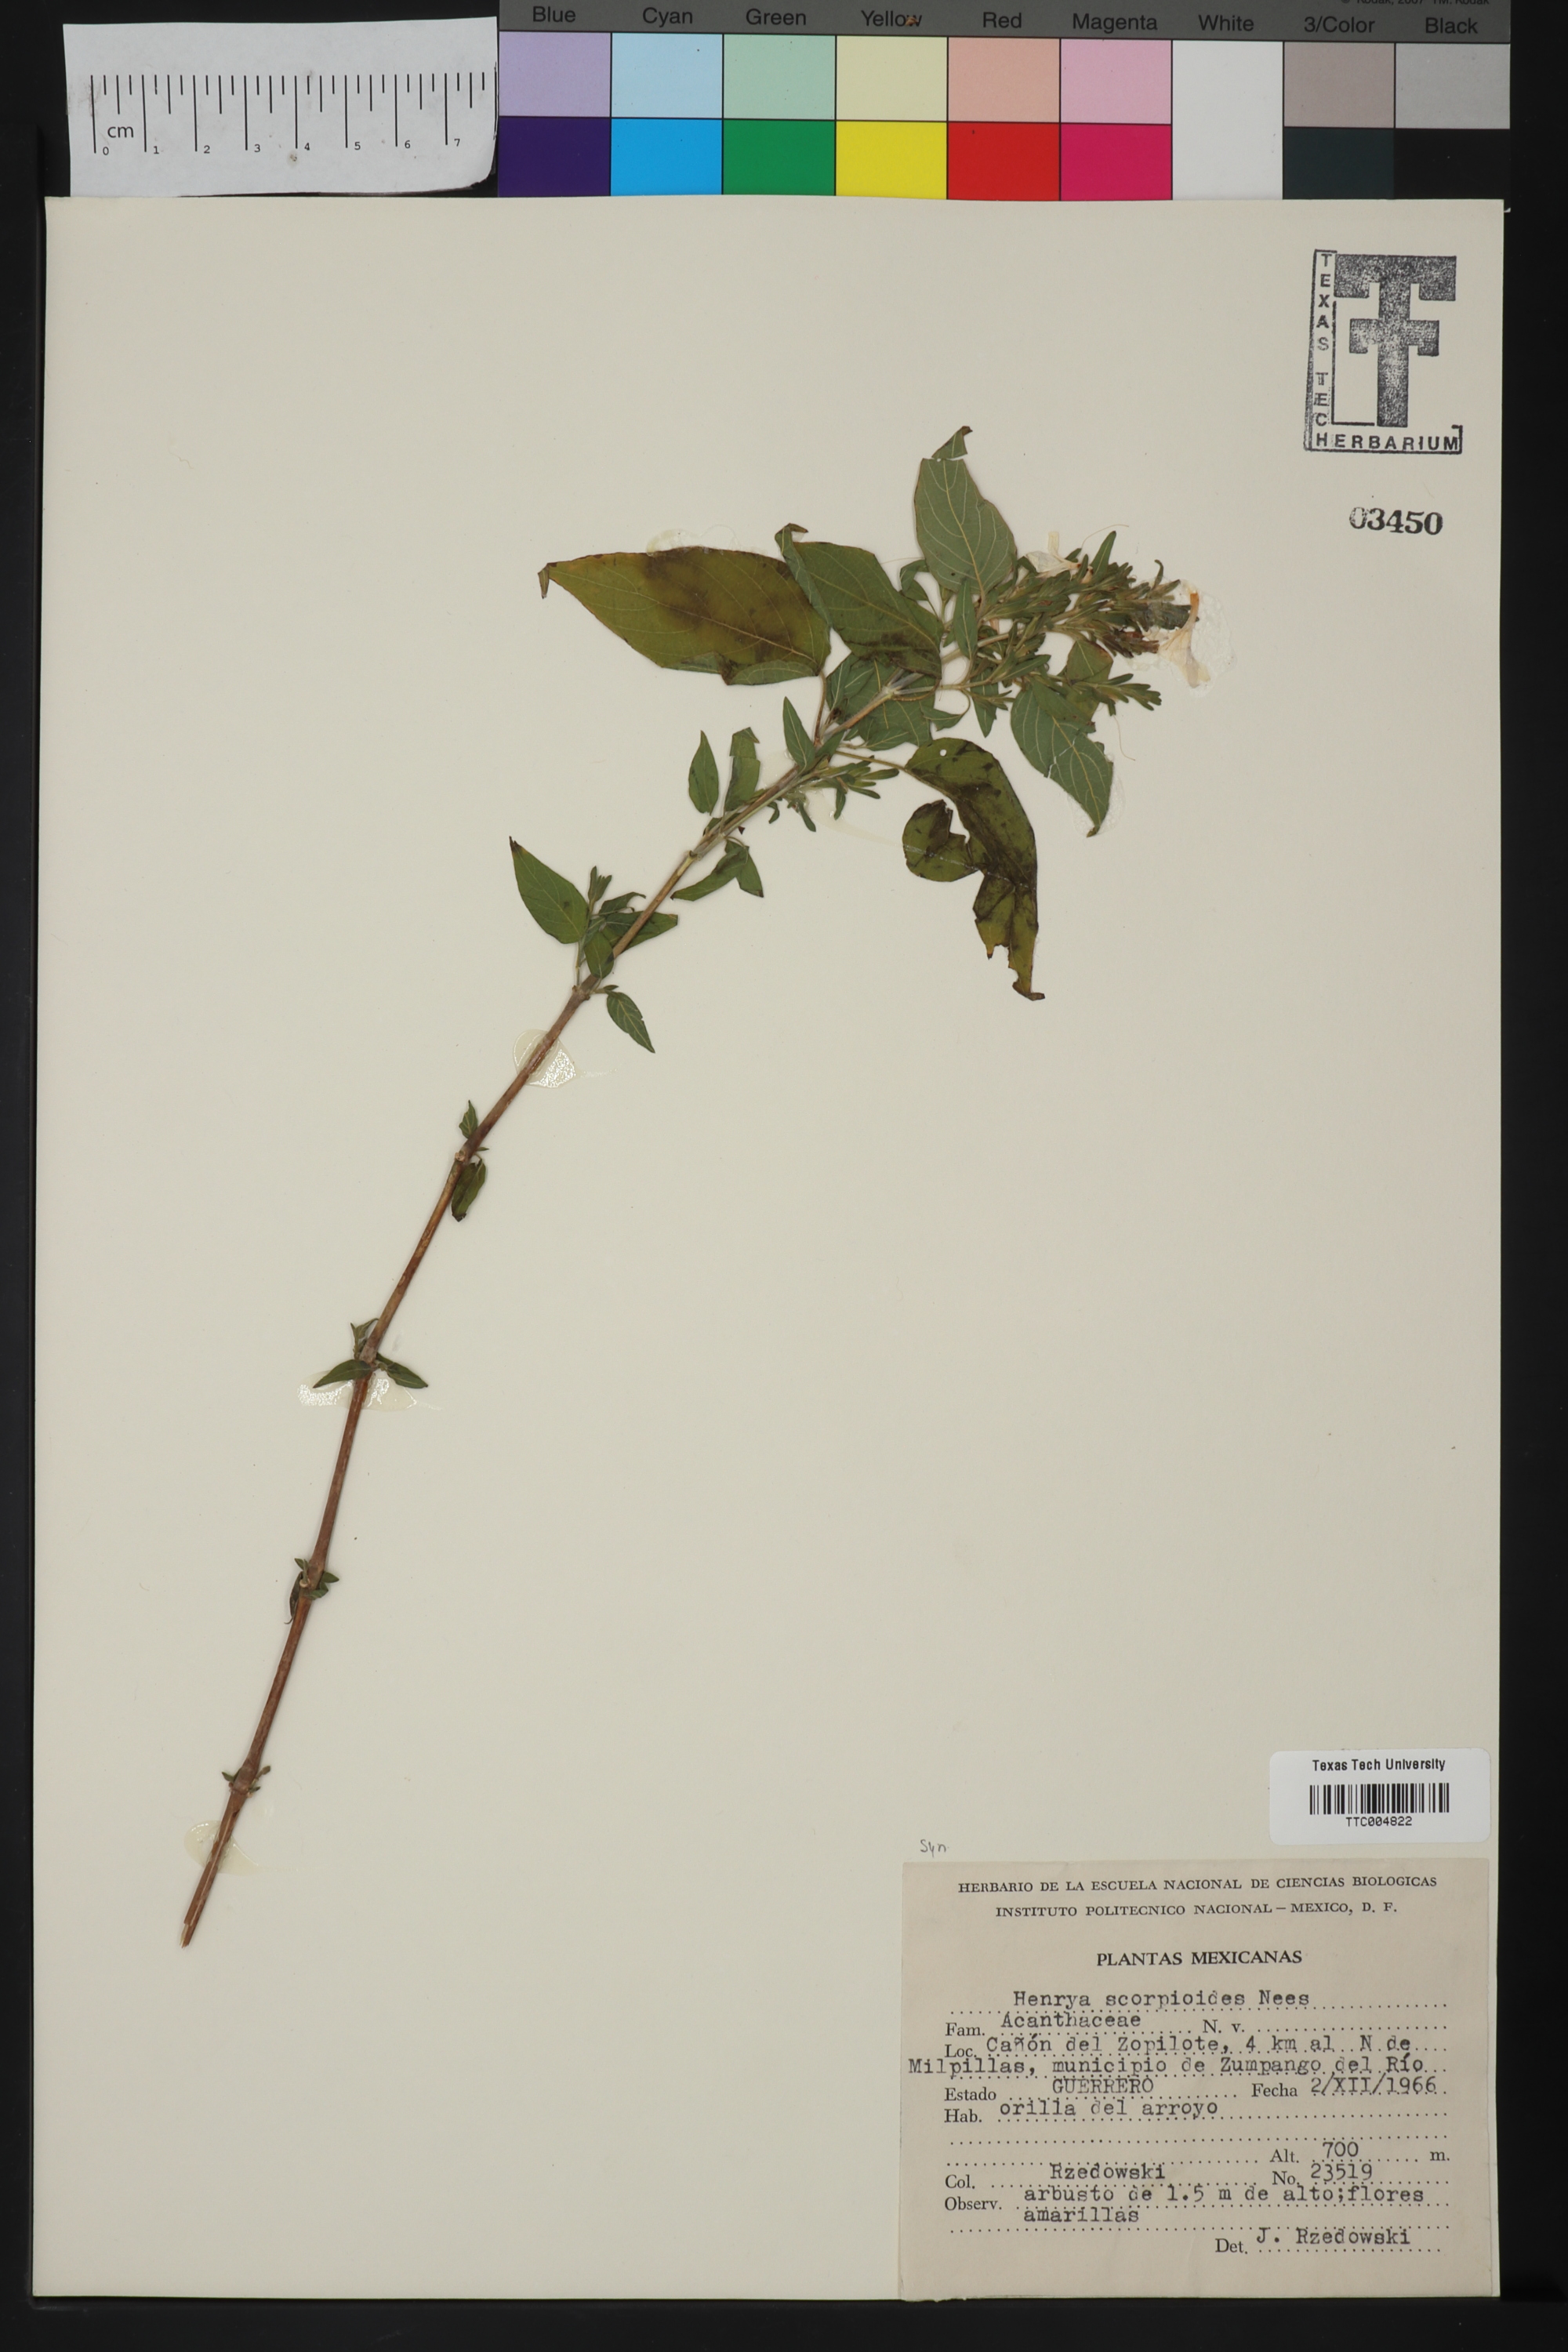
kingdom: Plantae
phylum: Tracheophyta
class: Magnoliopsida
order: Lamiales
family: Acanthaceae
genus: Dicliptera
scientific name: Dicliptera sexangularis
